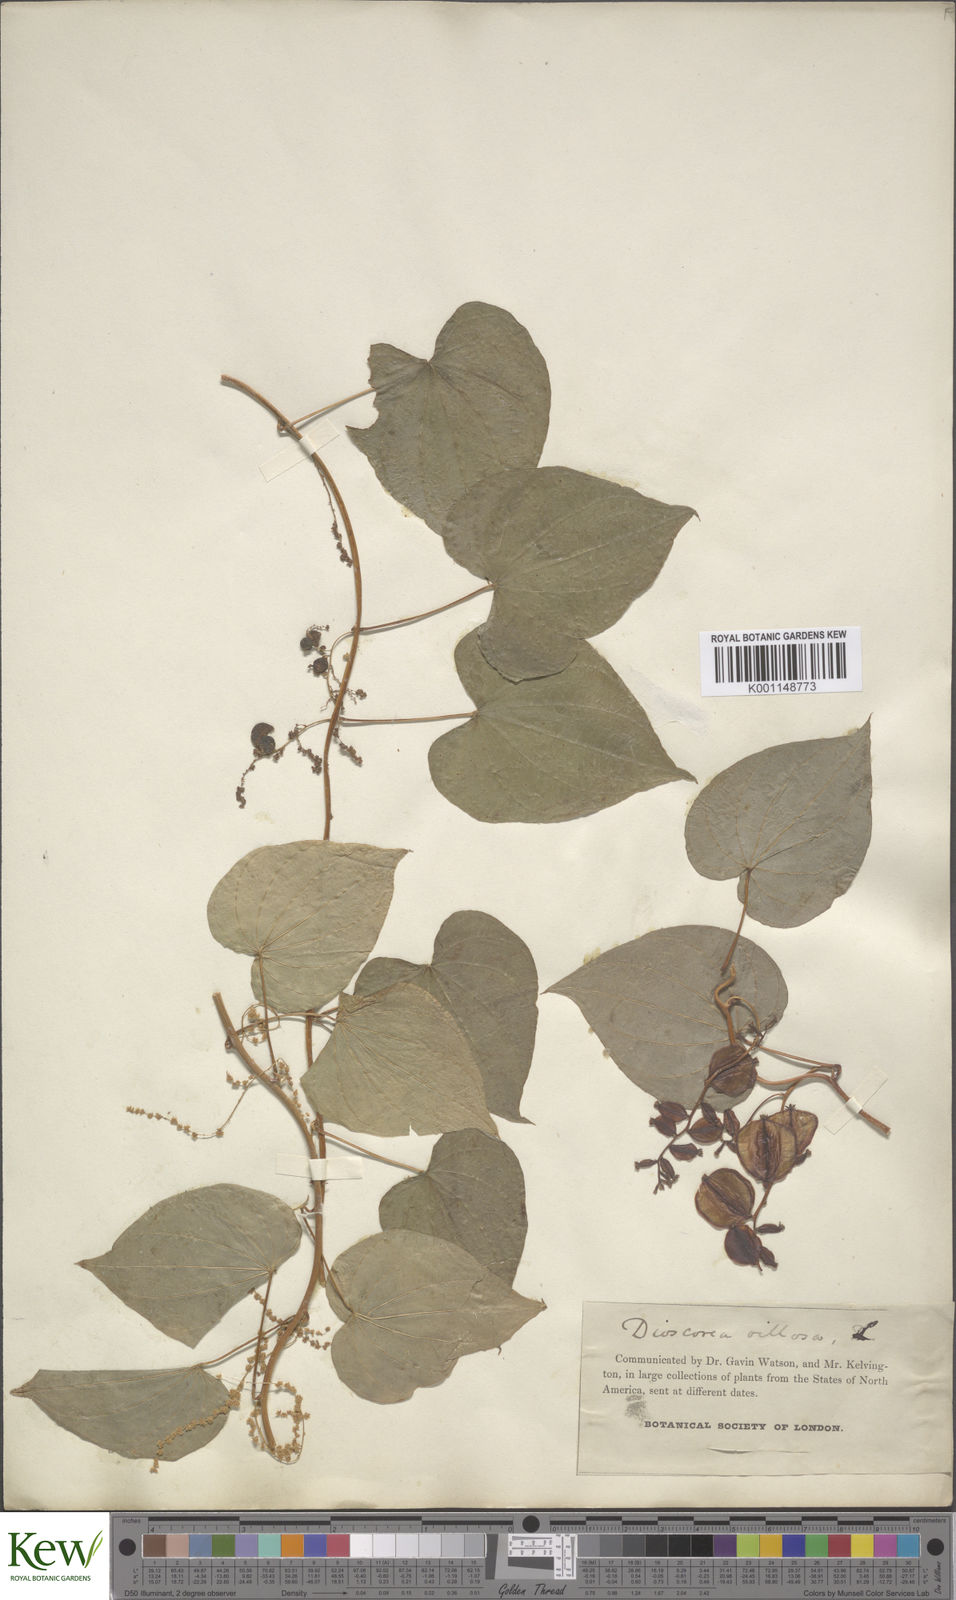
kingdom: Plantae
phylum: Tracheophyta
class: Liliopsida
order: Dioscoreales
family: Dioscoreaceae
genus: Dioscorea
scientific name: Dioscorea villosa
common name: Wild yam
